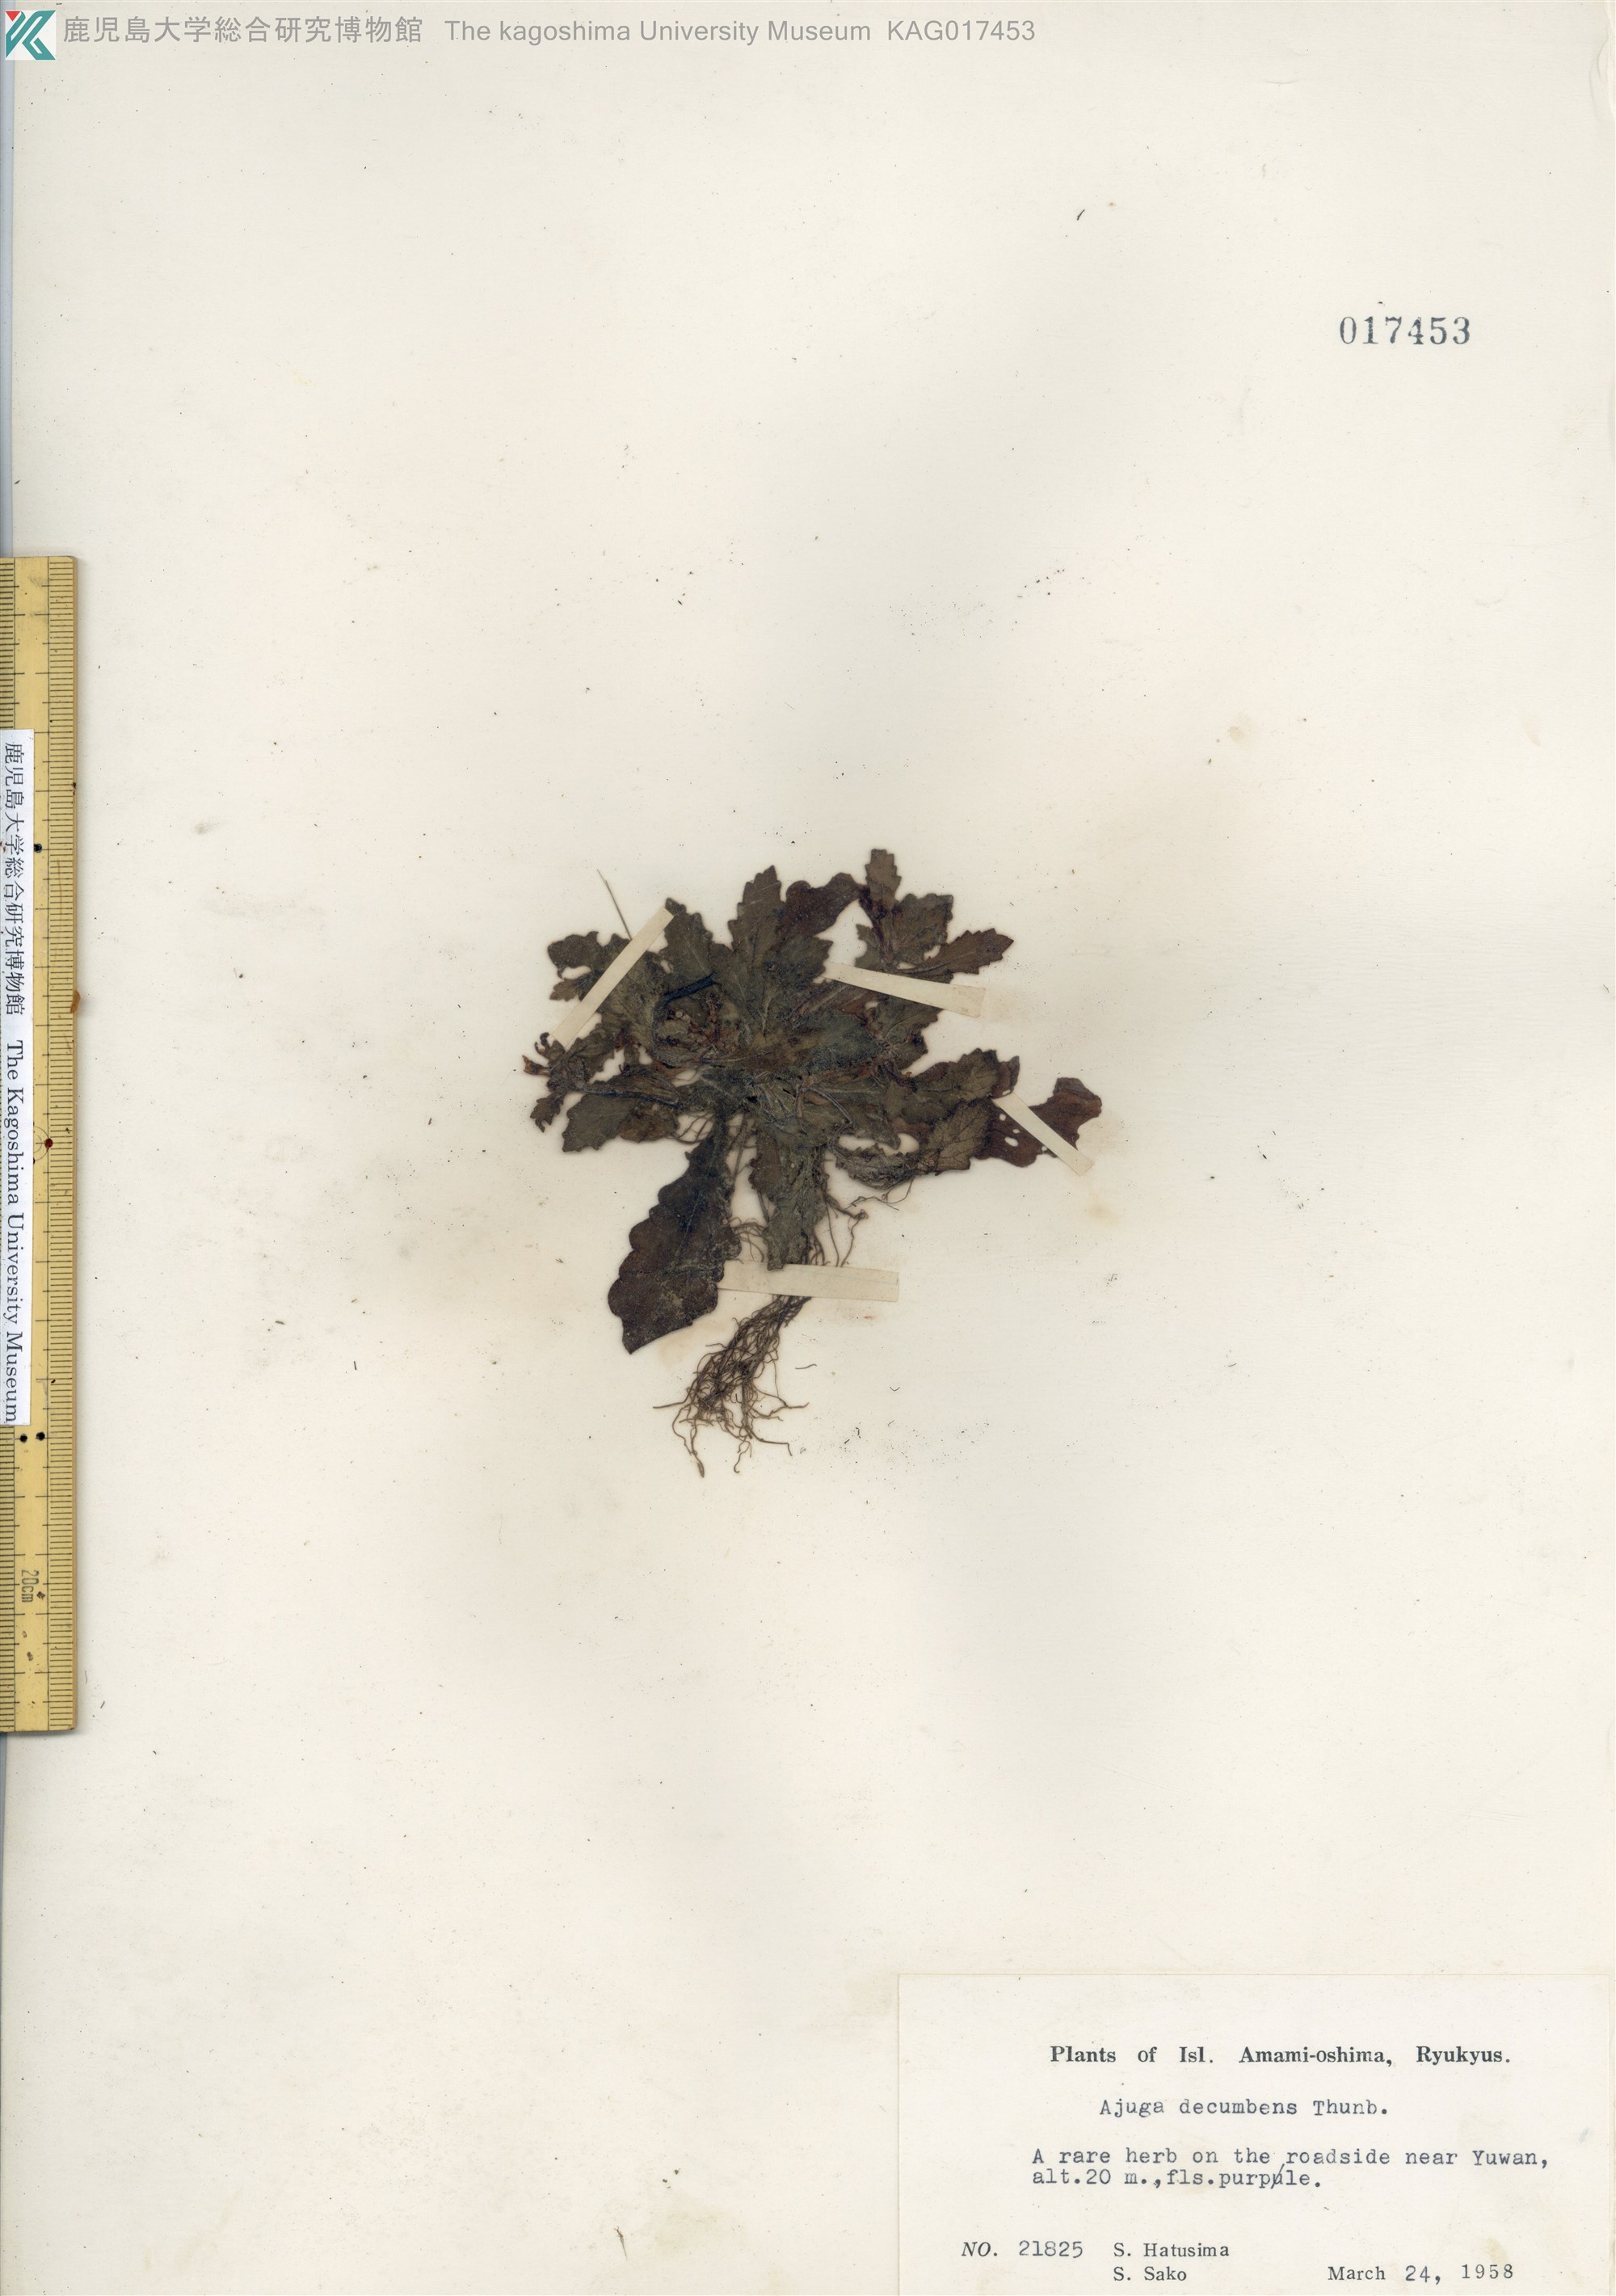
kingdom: Plantae
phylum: Tracheophyta
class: Magnoliopsida
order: Lamiales
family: Lamiaceae
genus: Ajuga
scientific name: Ajuga decumbens
